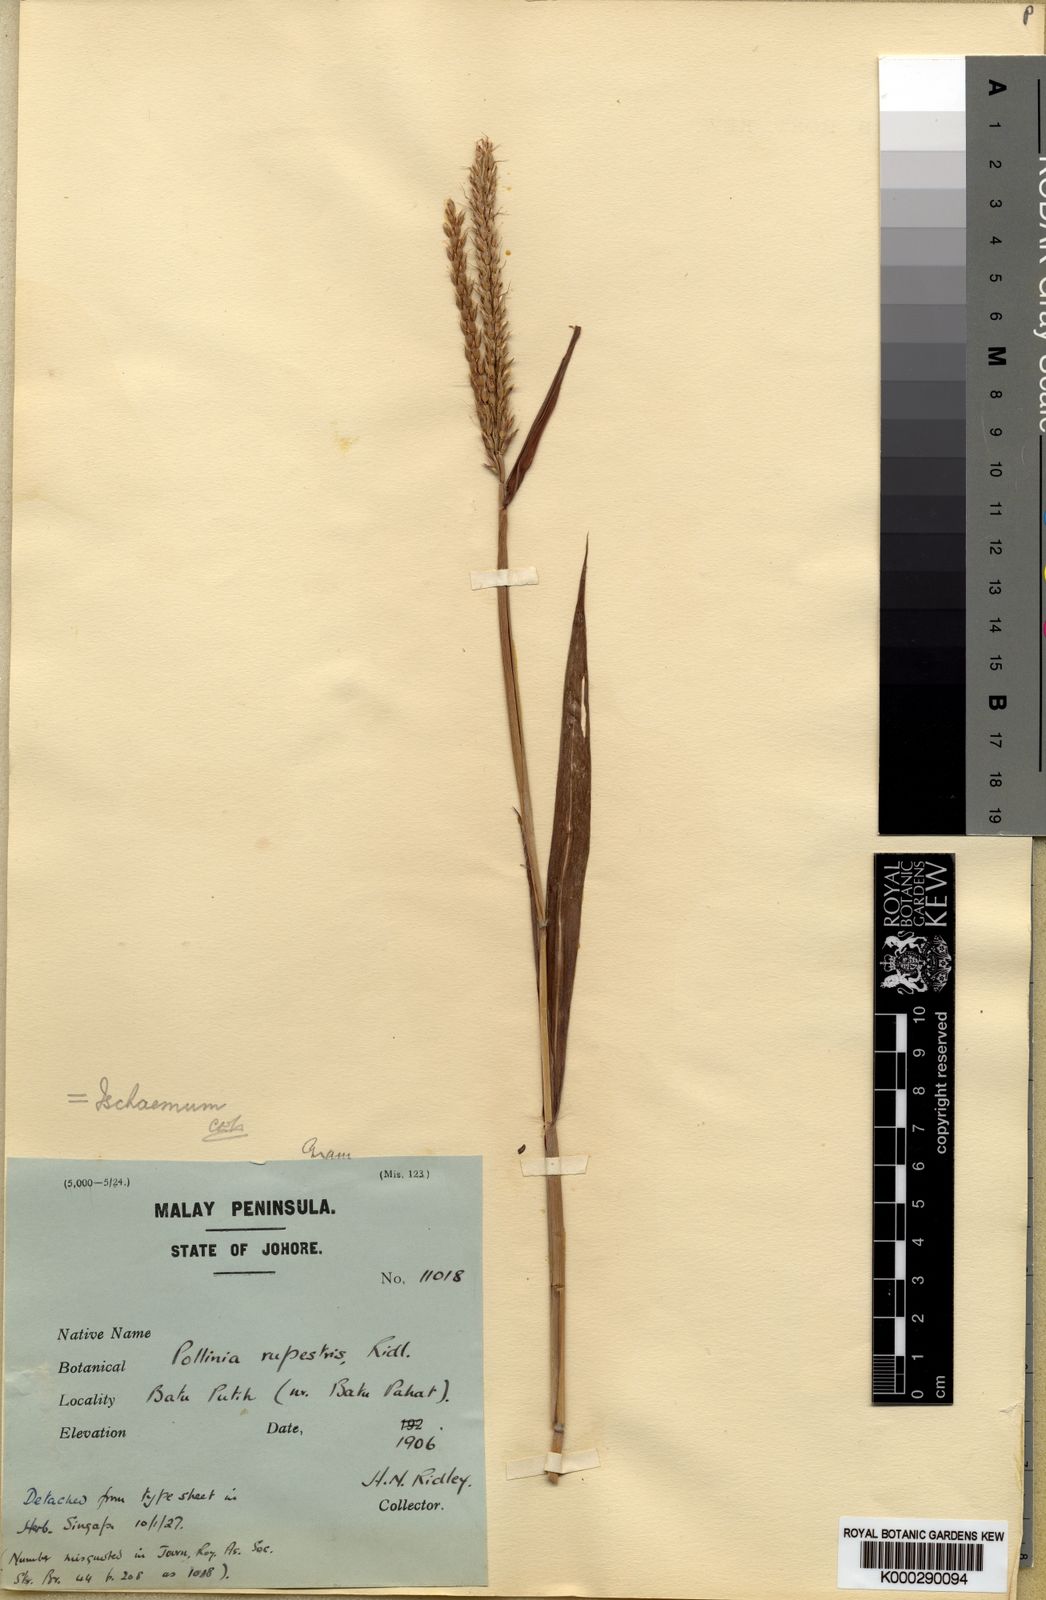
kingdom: Plantae
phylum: Tracheophyta
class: Liliopsida
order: Poales
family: Poaceae
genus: Ischaemum
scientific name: Ischaemum polystachyum
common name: Paddle grass
